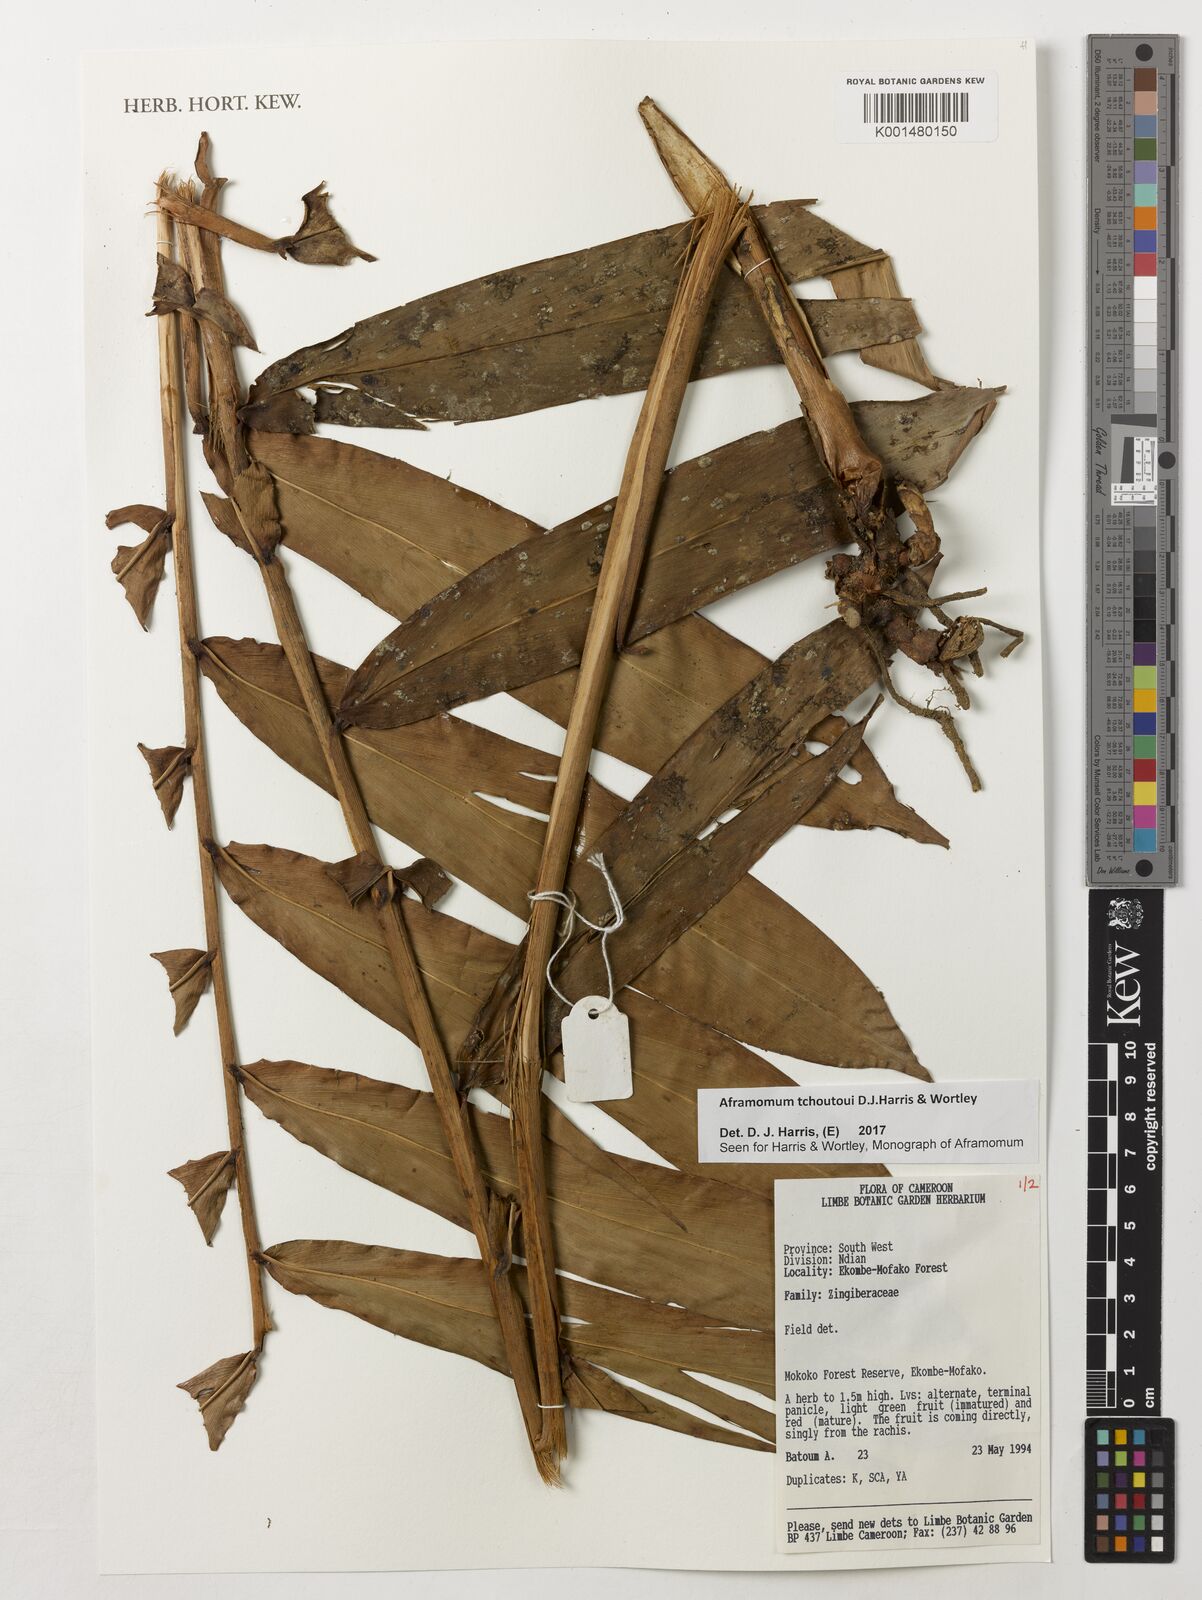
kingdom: Plantae
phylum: Tracheophyta
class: Liliopsida
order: Zingiberales
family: Zingiberaceae
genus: Aframomum
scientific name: Aframomum tchoutoui
